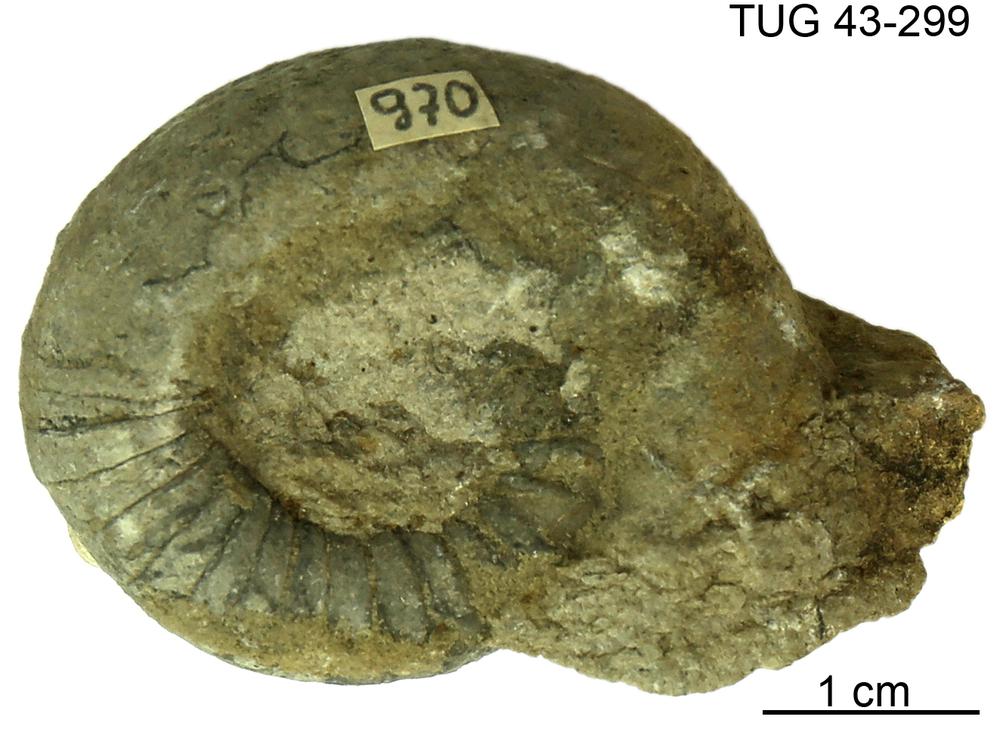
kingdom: Animalia
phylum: Mollusca
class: Cephalopoda
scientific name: Cephalopoda
